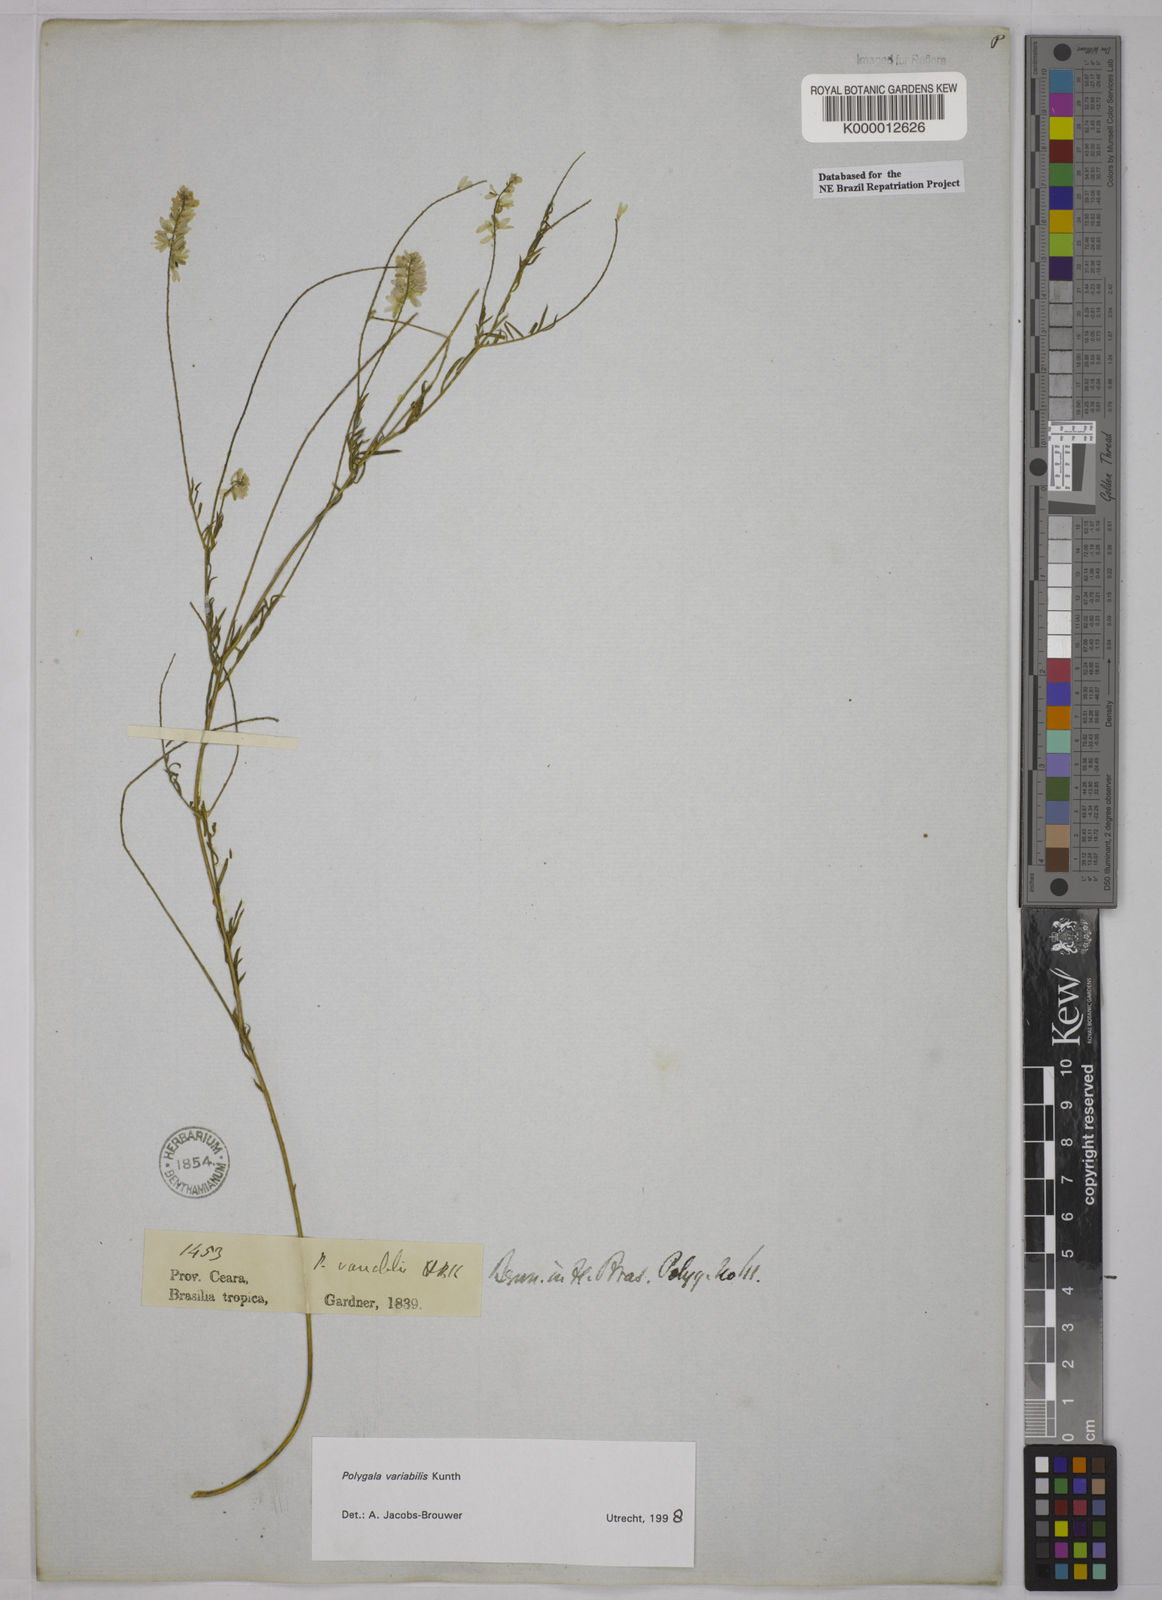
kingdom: Plantae
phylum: Tracheophyta
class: Magnoliopsida
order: Fabales
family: Polygalaceae
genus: Polygala
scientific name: Polygala trichosperma
